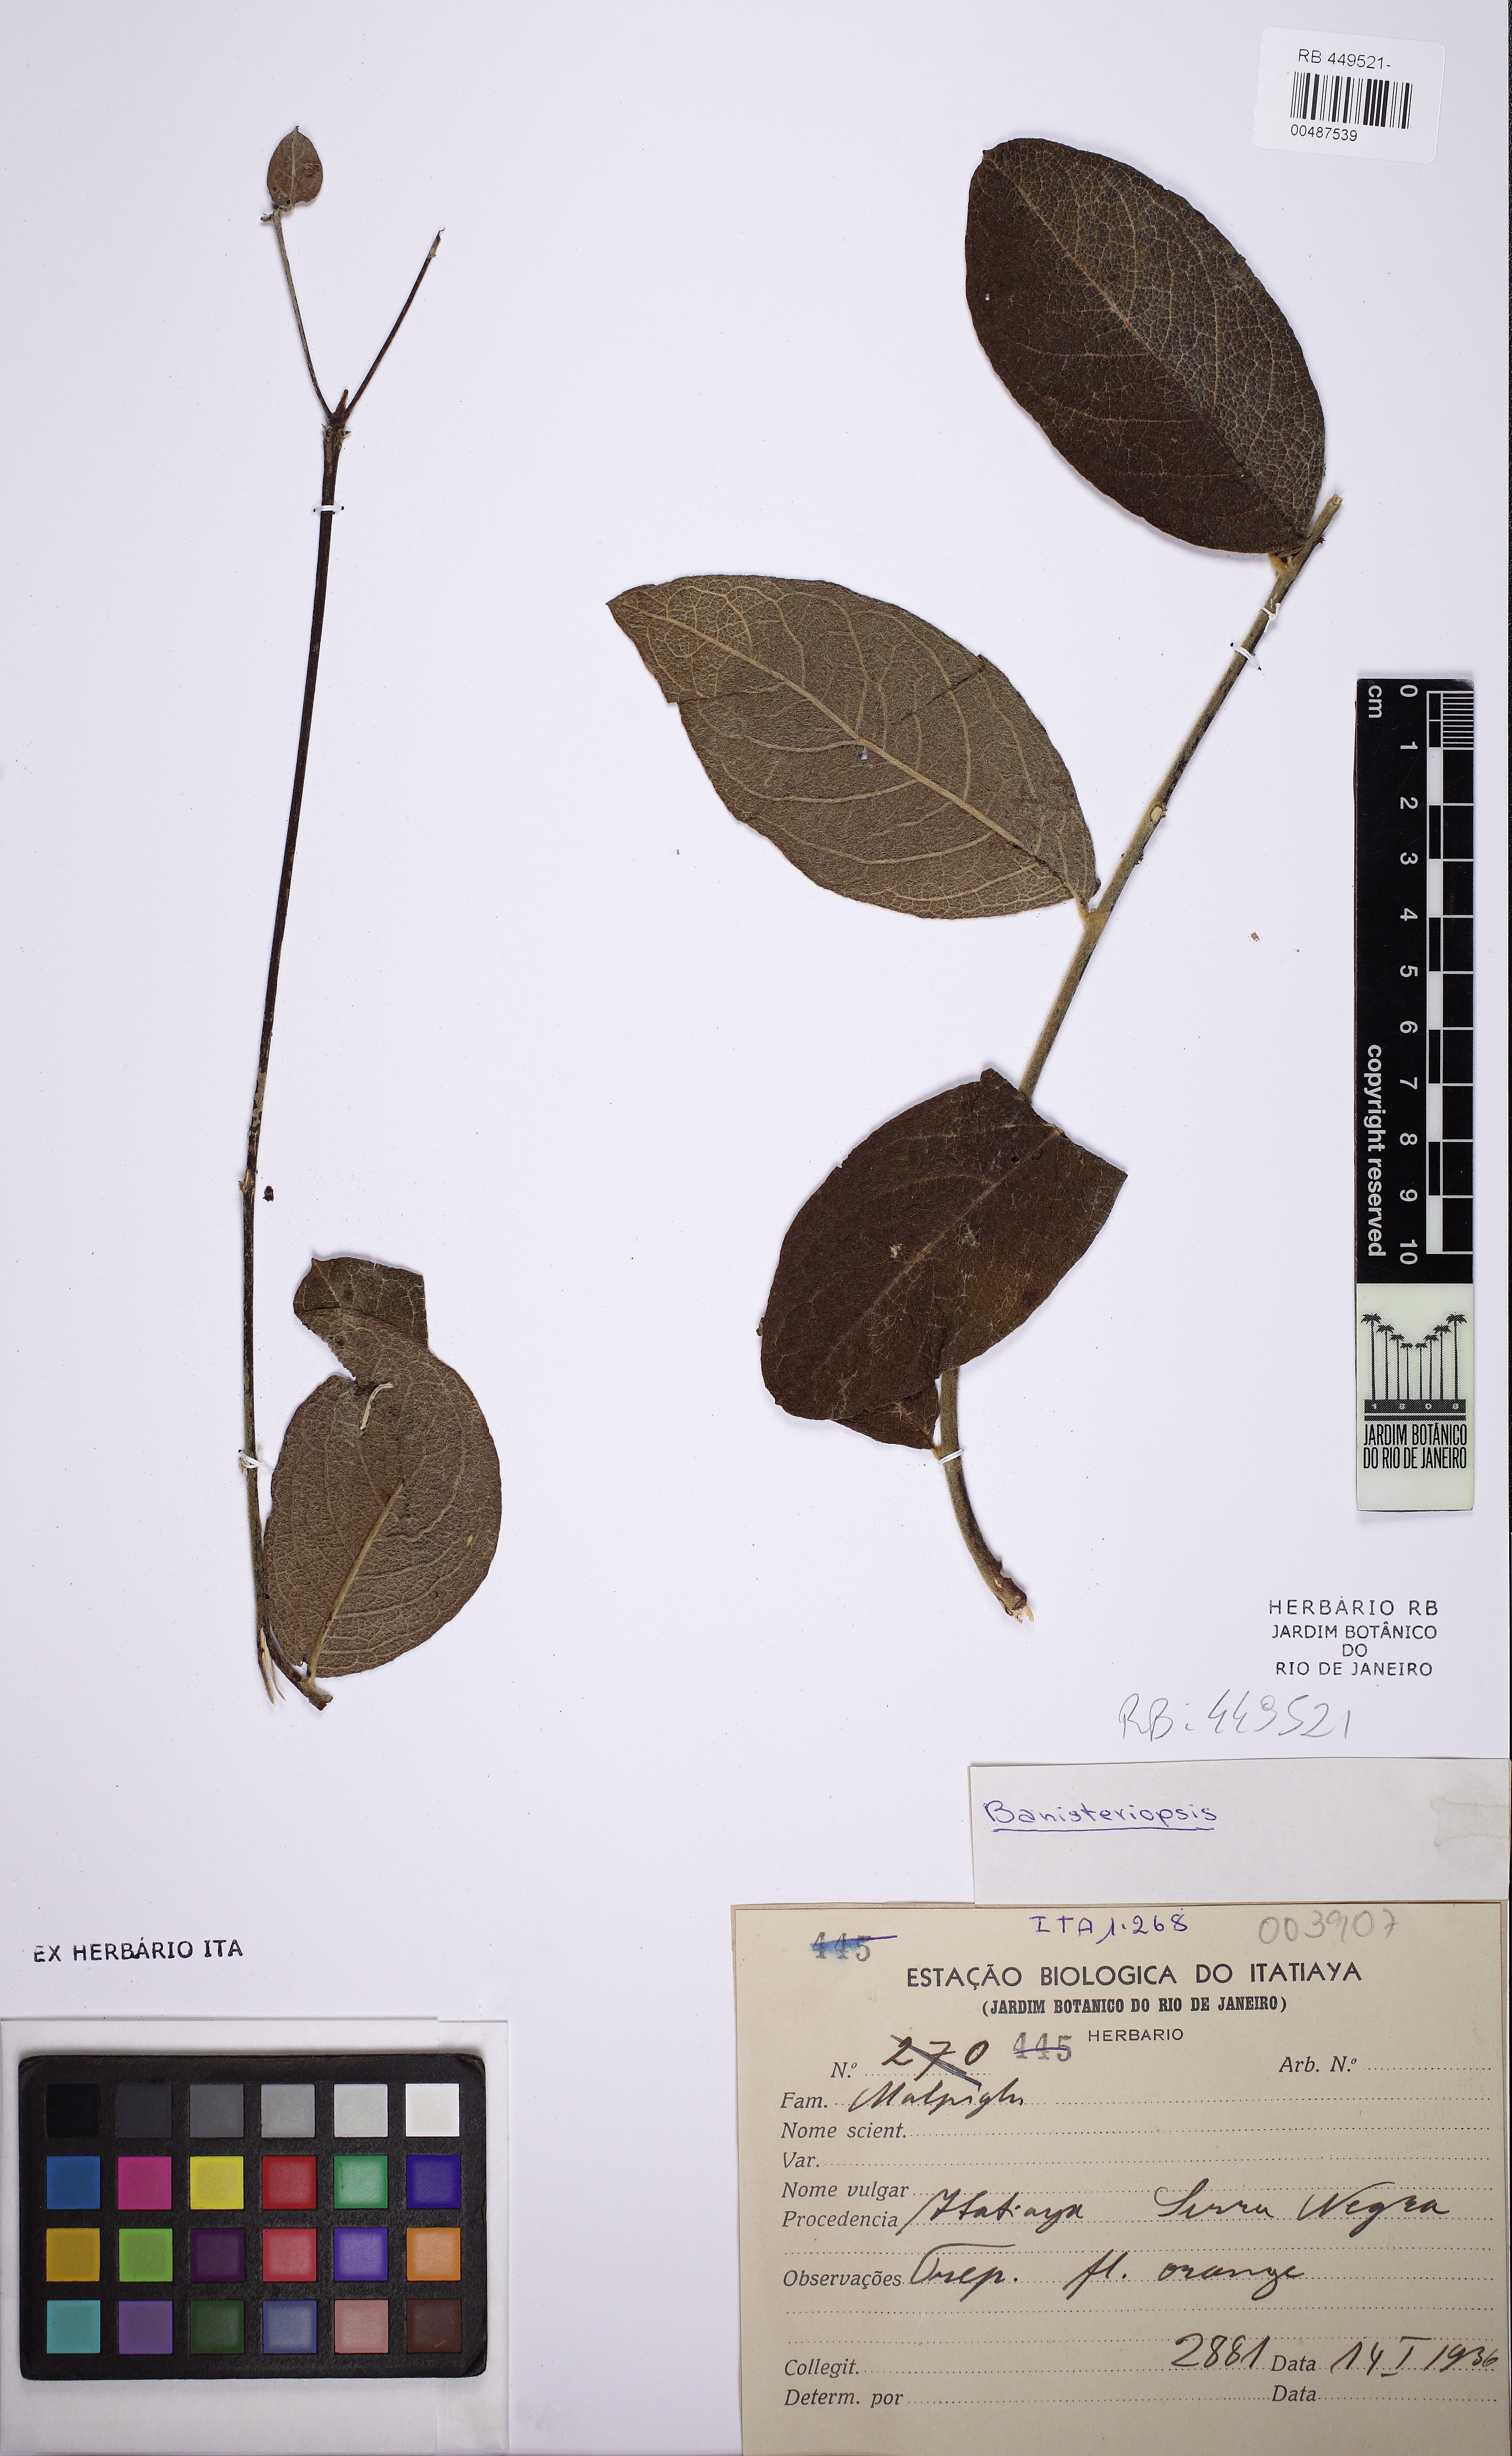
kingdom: Plantae
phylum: Tracheophyta
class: Magnoliopsida
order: Malpighiales
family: Malpighiaceae
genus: Banisteriopsis
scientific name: Banisteriopsis campestris
